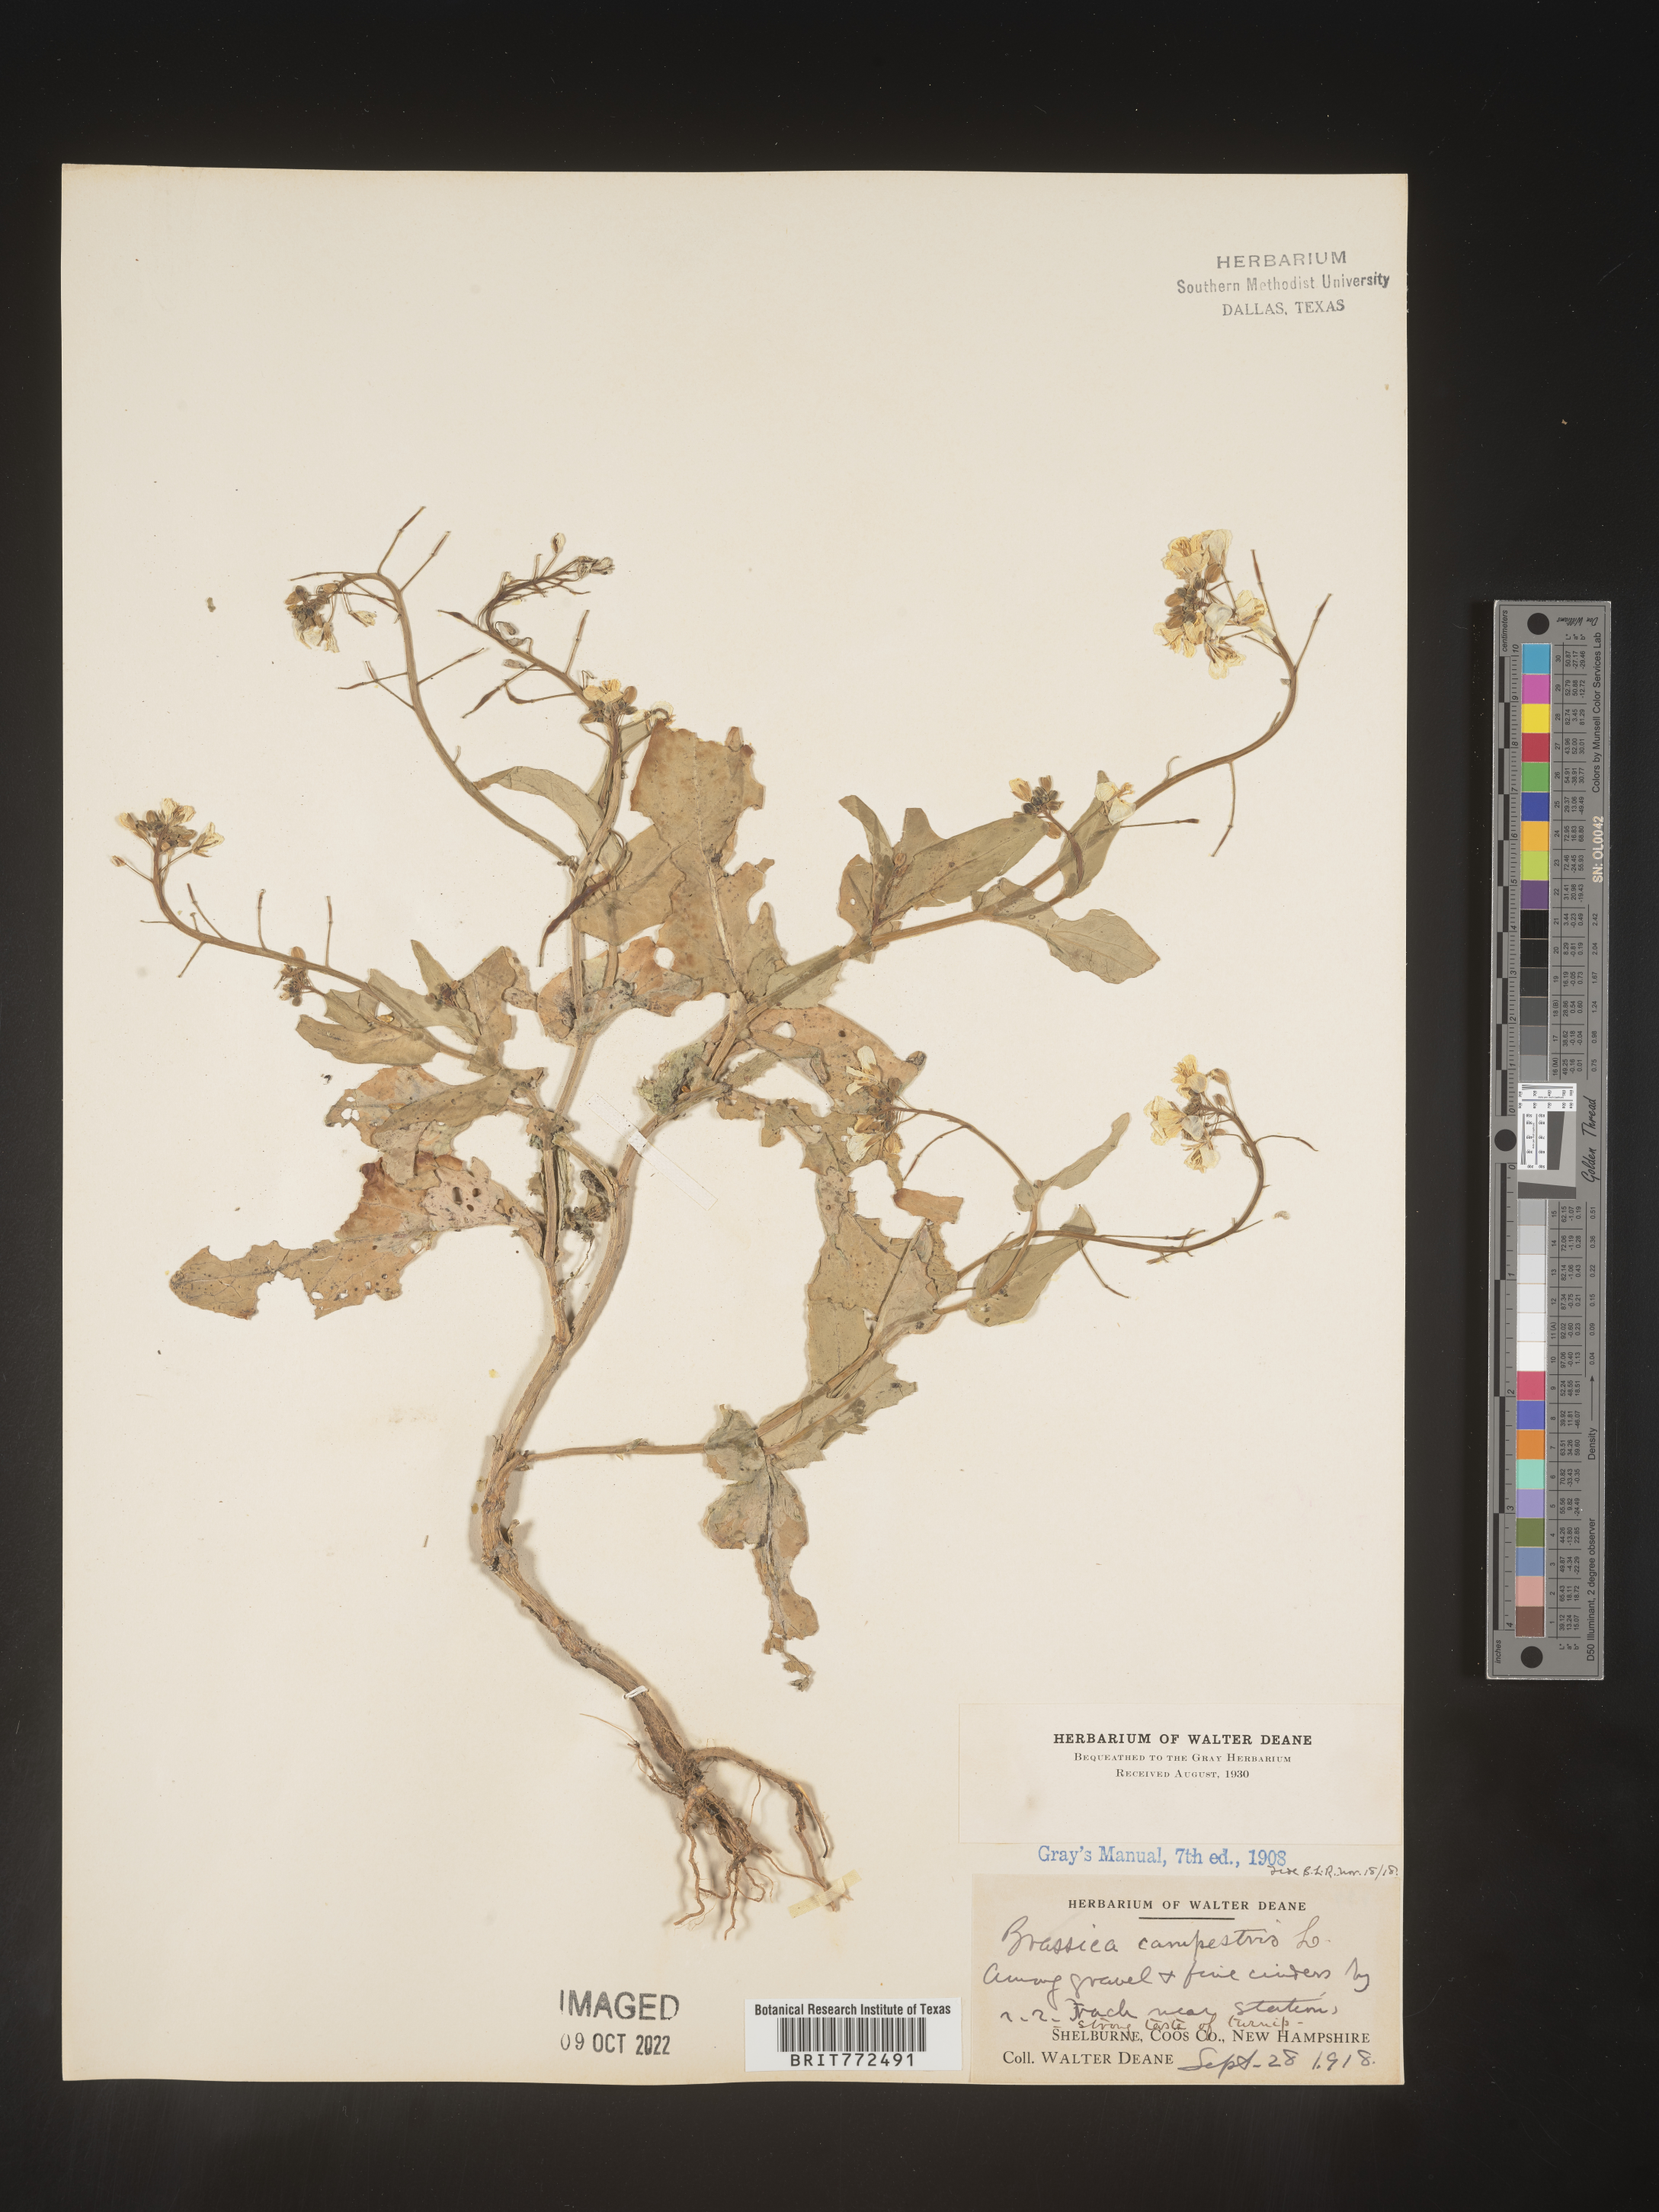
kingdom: Plantae
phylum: Tracheophyta
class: Magnoliopsida
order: Brassicales
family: Brassicaceae
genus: Brassica
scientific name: Brassica
